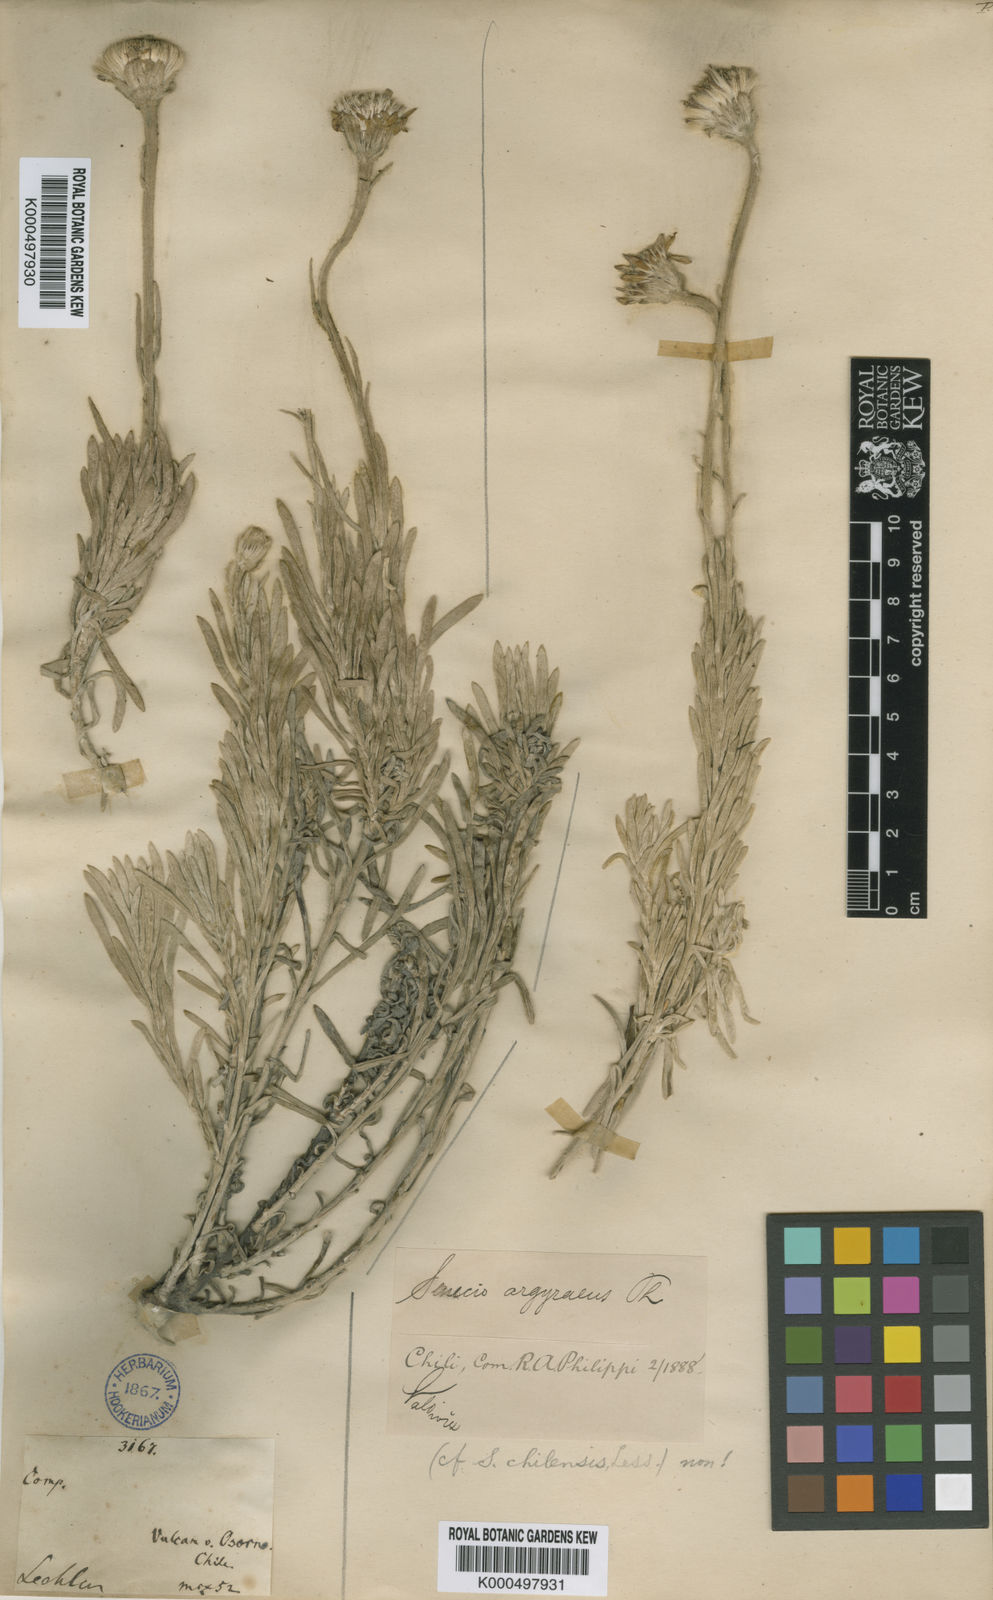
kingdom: Plantae
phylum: Tracheophyta
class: Magnoliopsida
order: Asterales
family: Asteraceae
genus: Senecio
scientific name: Senecio argyreus
